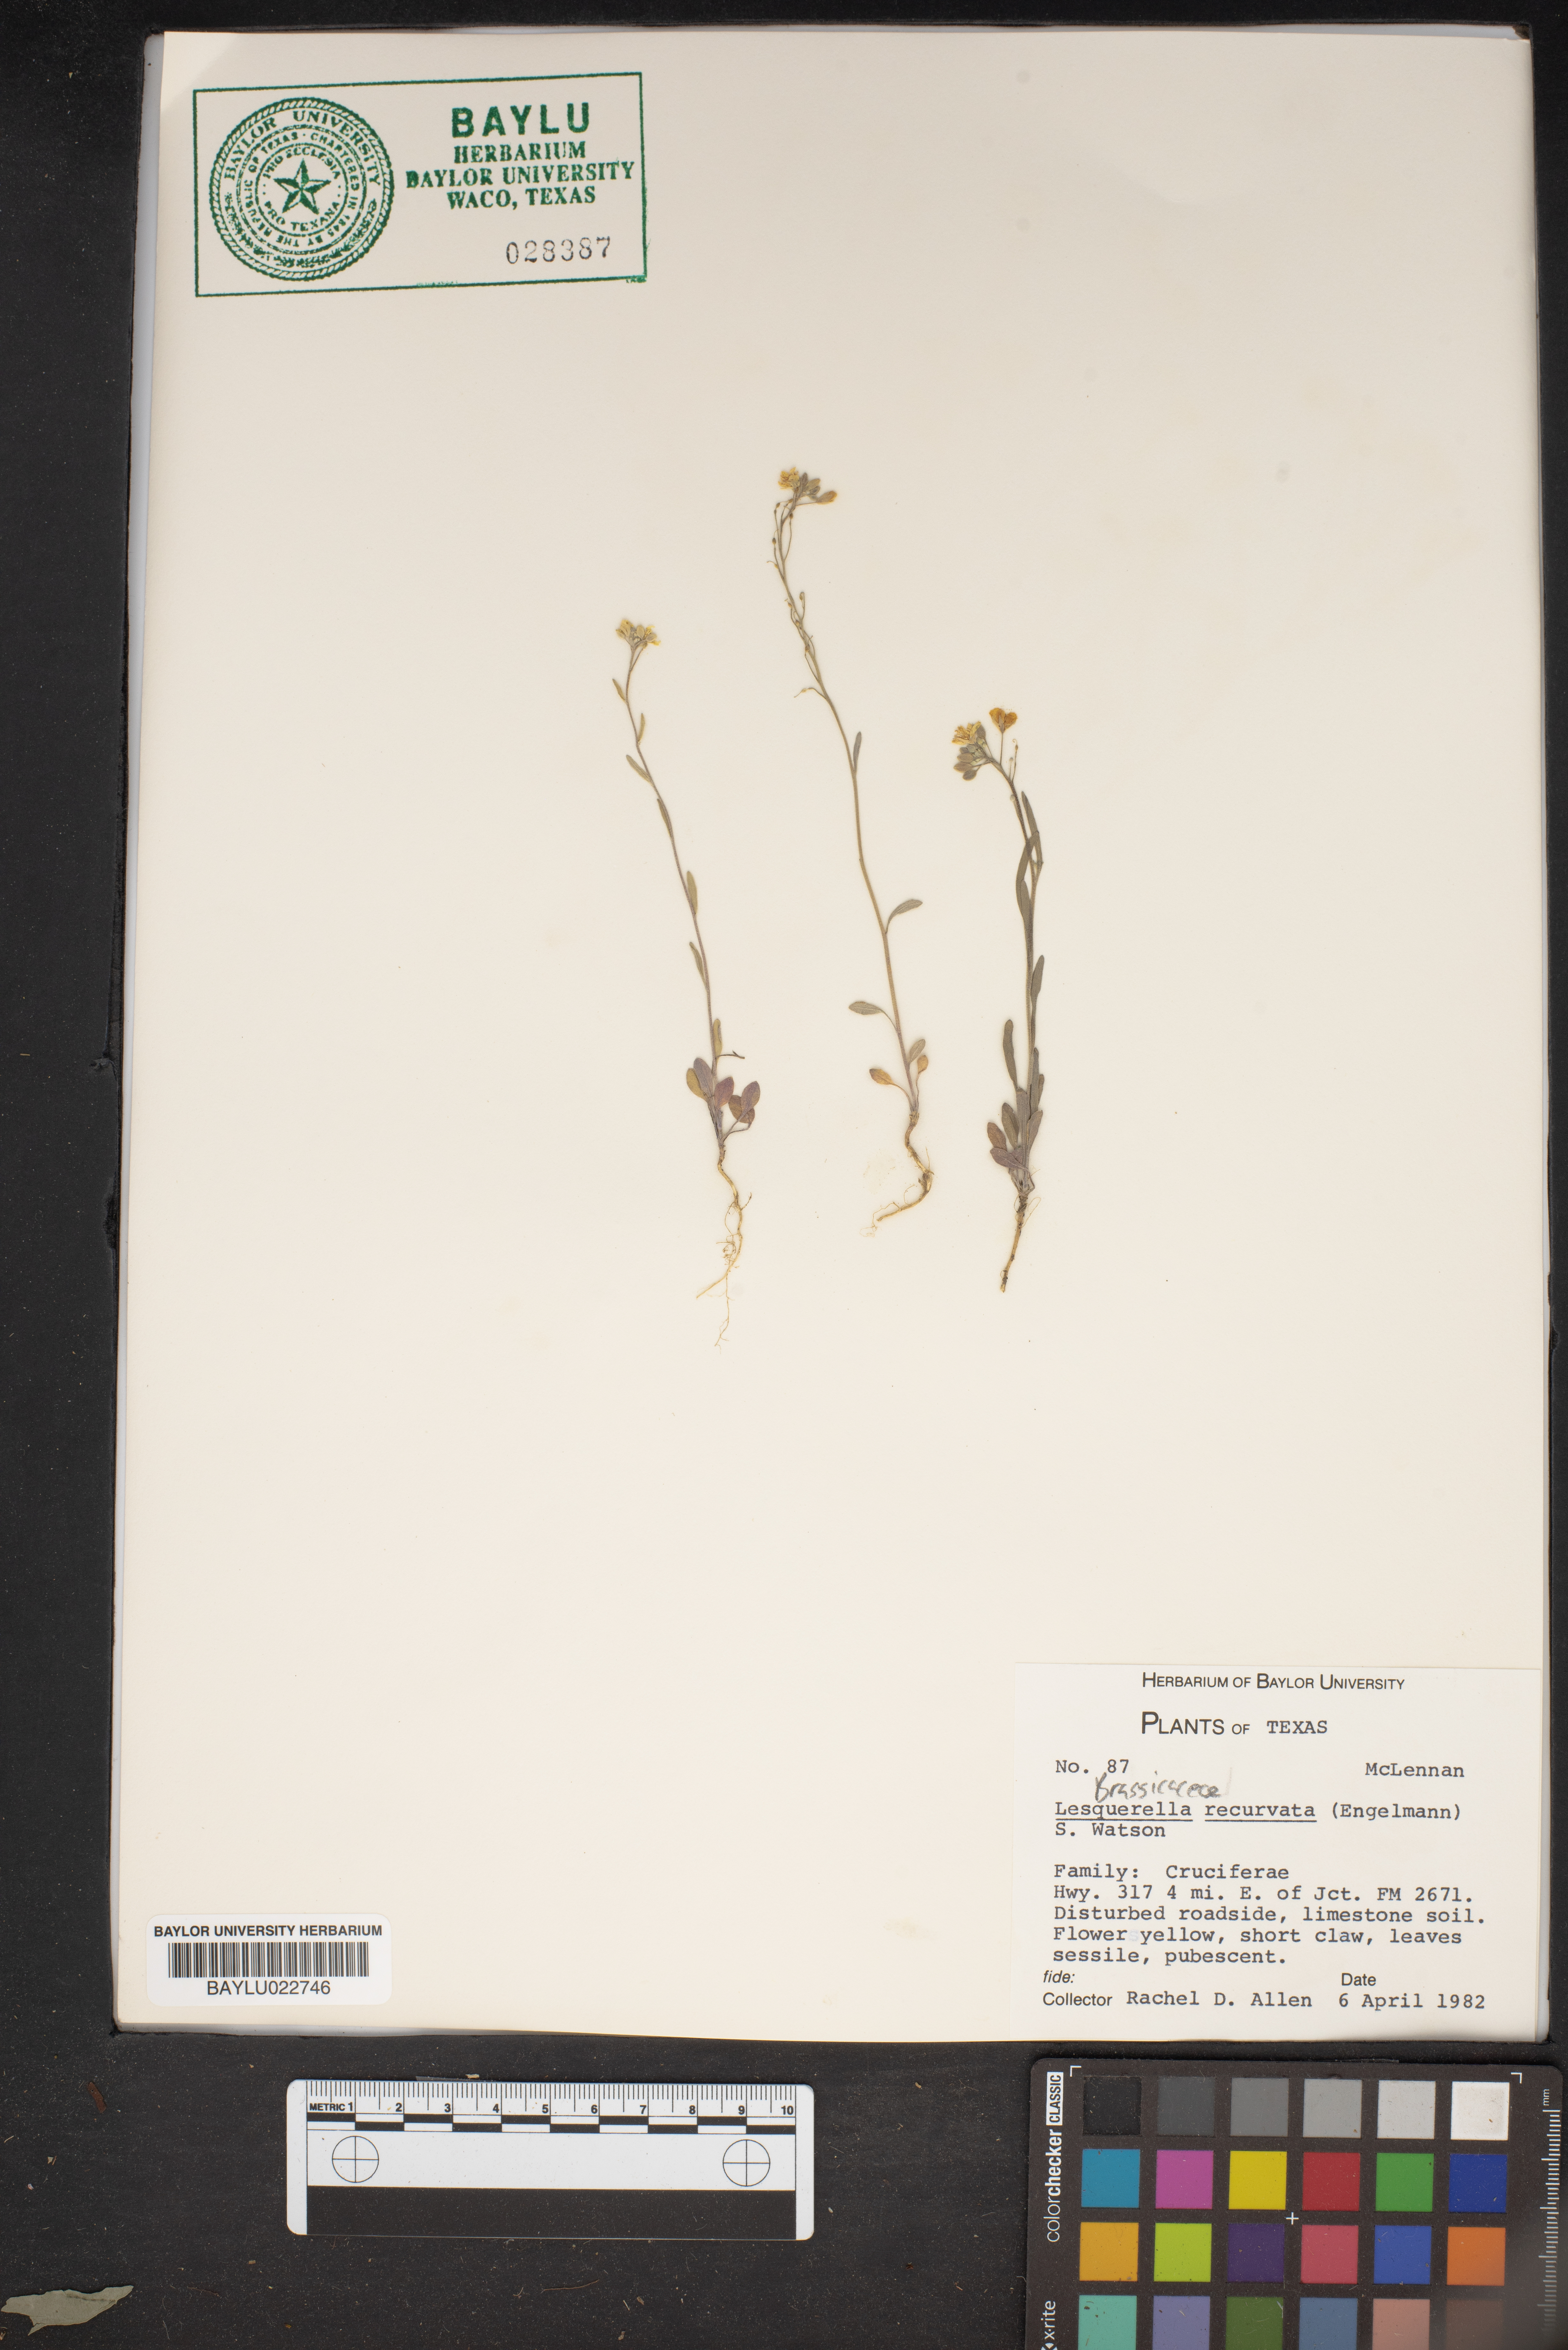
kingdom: Plantae
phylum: Tracheophyta
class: Magnoliopsida
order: Brassicales
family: Brassicaceae
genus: Physaria
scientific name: Physaria recurvata
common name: Gaslight bladderpod
